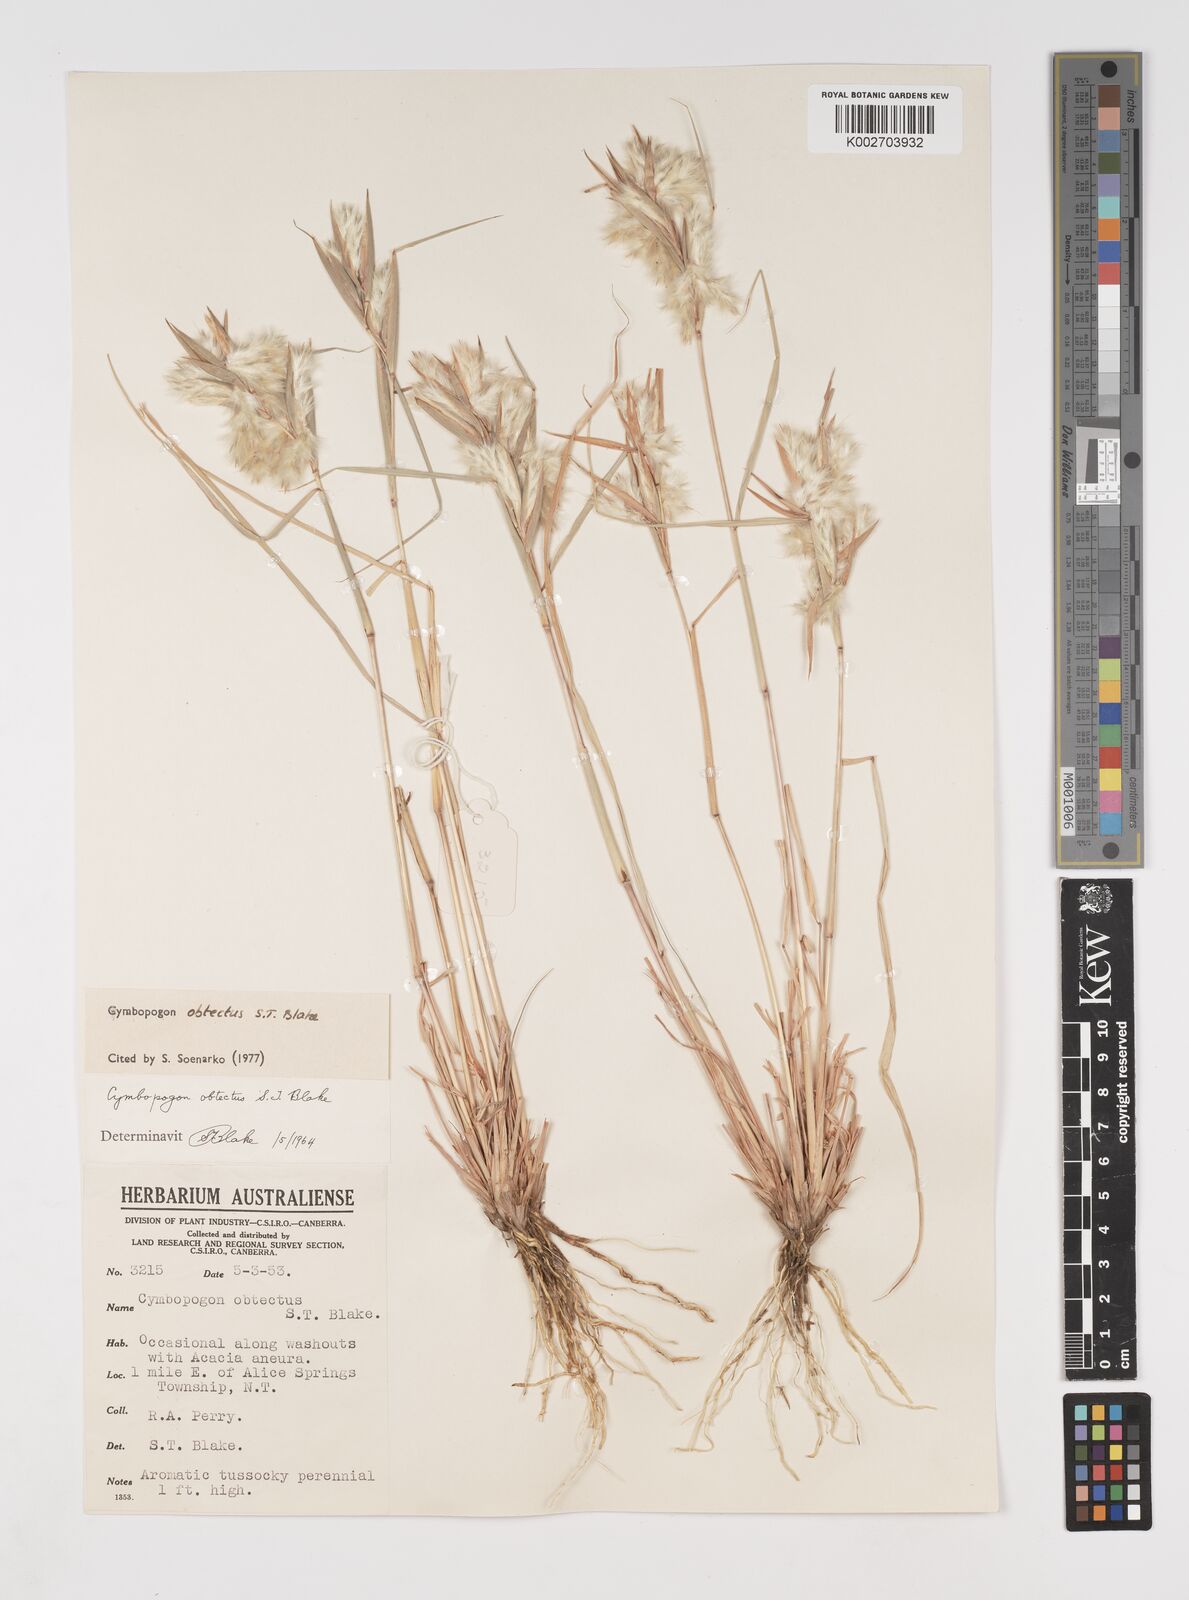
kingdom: Plantae
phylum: Tracheophyta
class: Liliopsida
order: Poales
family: Poaceae
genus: Cymbopogon
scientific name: Cymbopogon obtectus
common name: Silky heads
